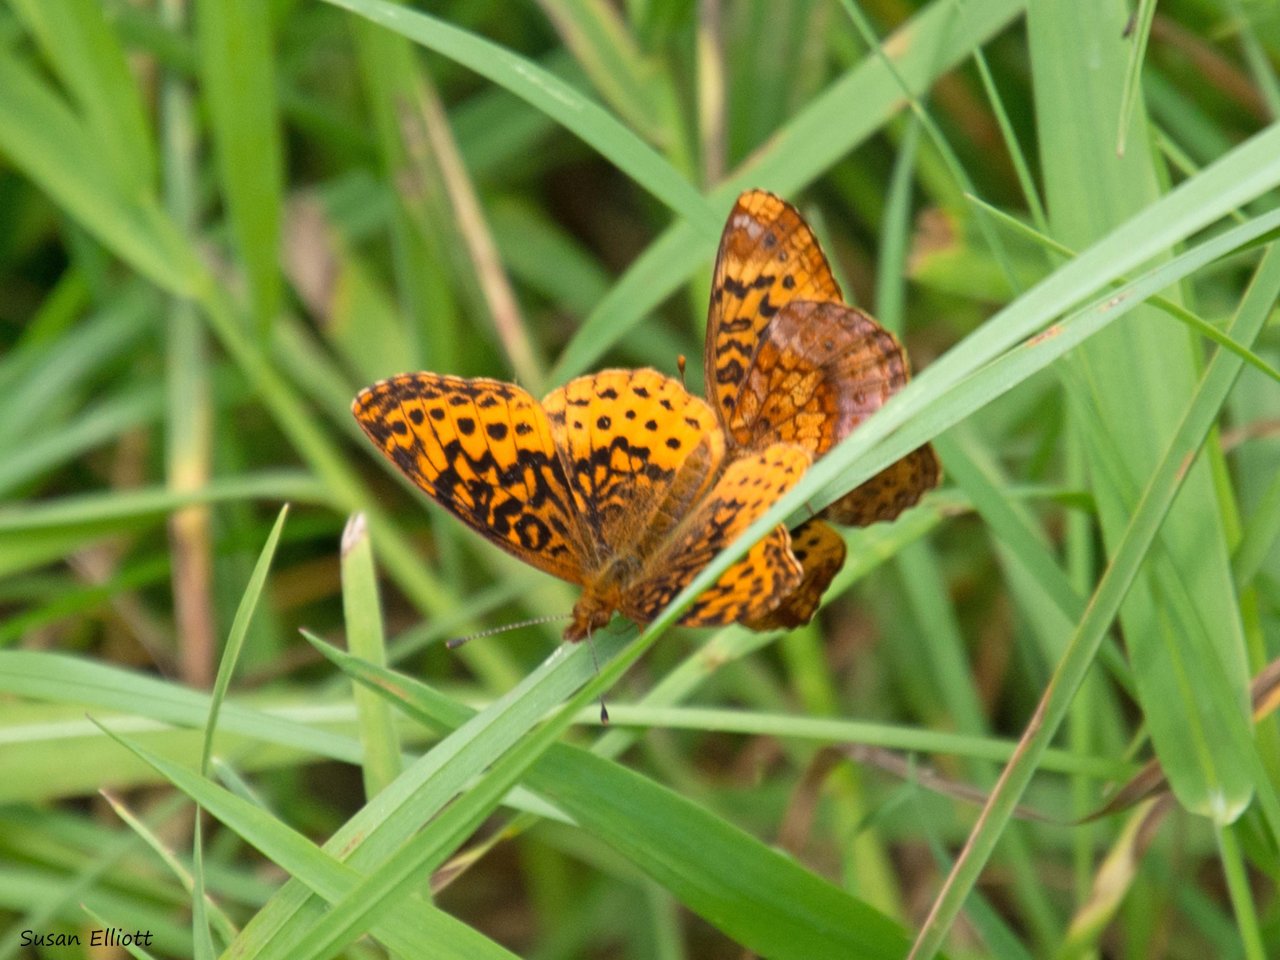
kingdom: Animalia
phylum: Arthropoda
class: Insecta
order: Lepidoptera
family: Nymphalidae
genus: Clossiana
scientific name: Clossiana toddi
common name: Meadow Fritillary
